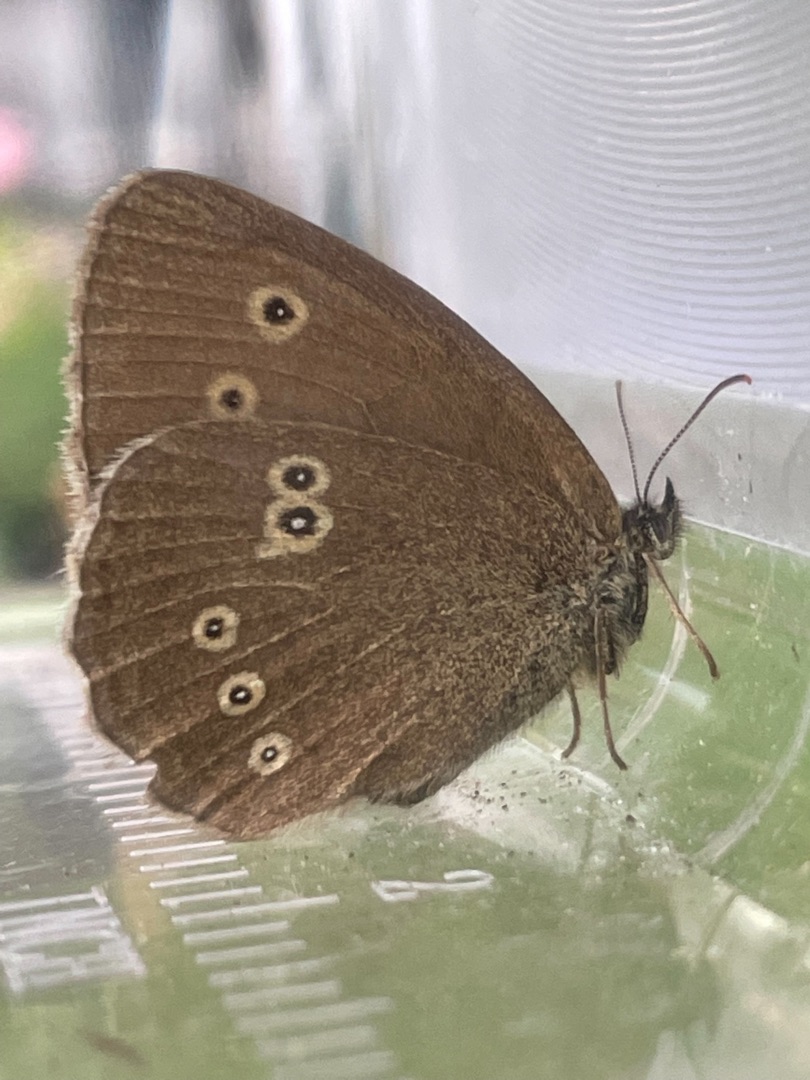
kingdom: Animalia
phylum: Arthropoda
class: Insecta
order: Lepidoptera
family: Nymphalidae
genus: Aphantopus
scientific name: Aphantopus hyperantus
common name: Engrandøje
